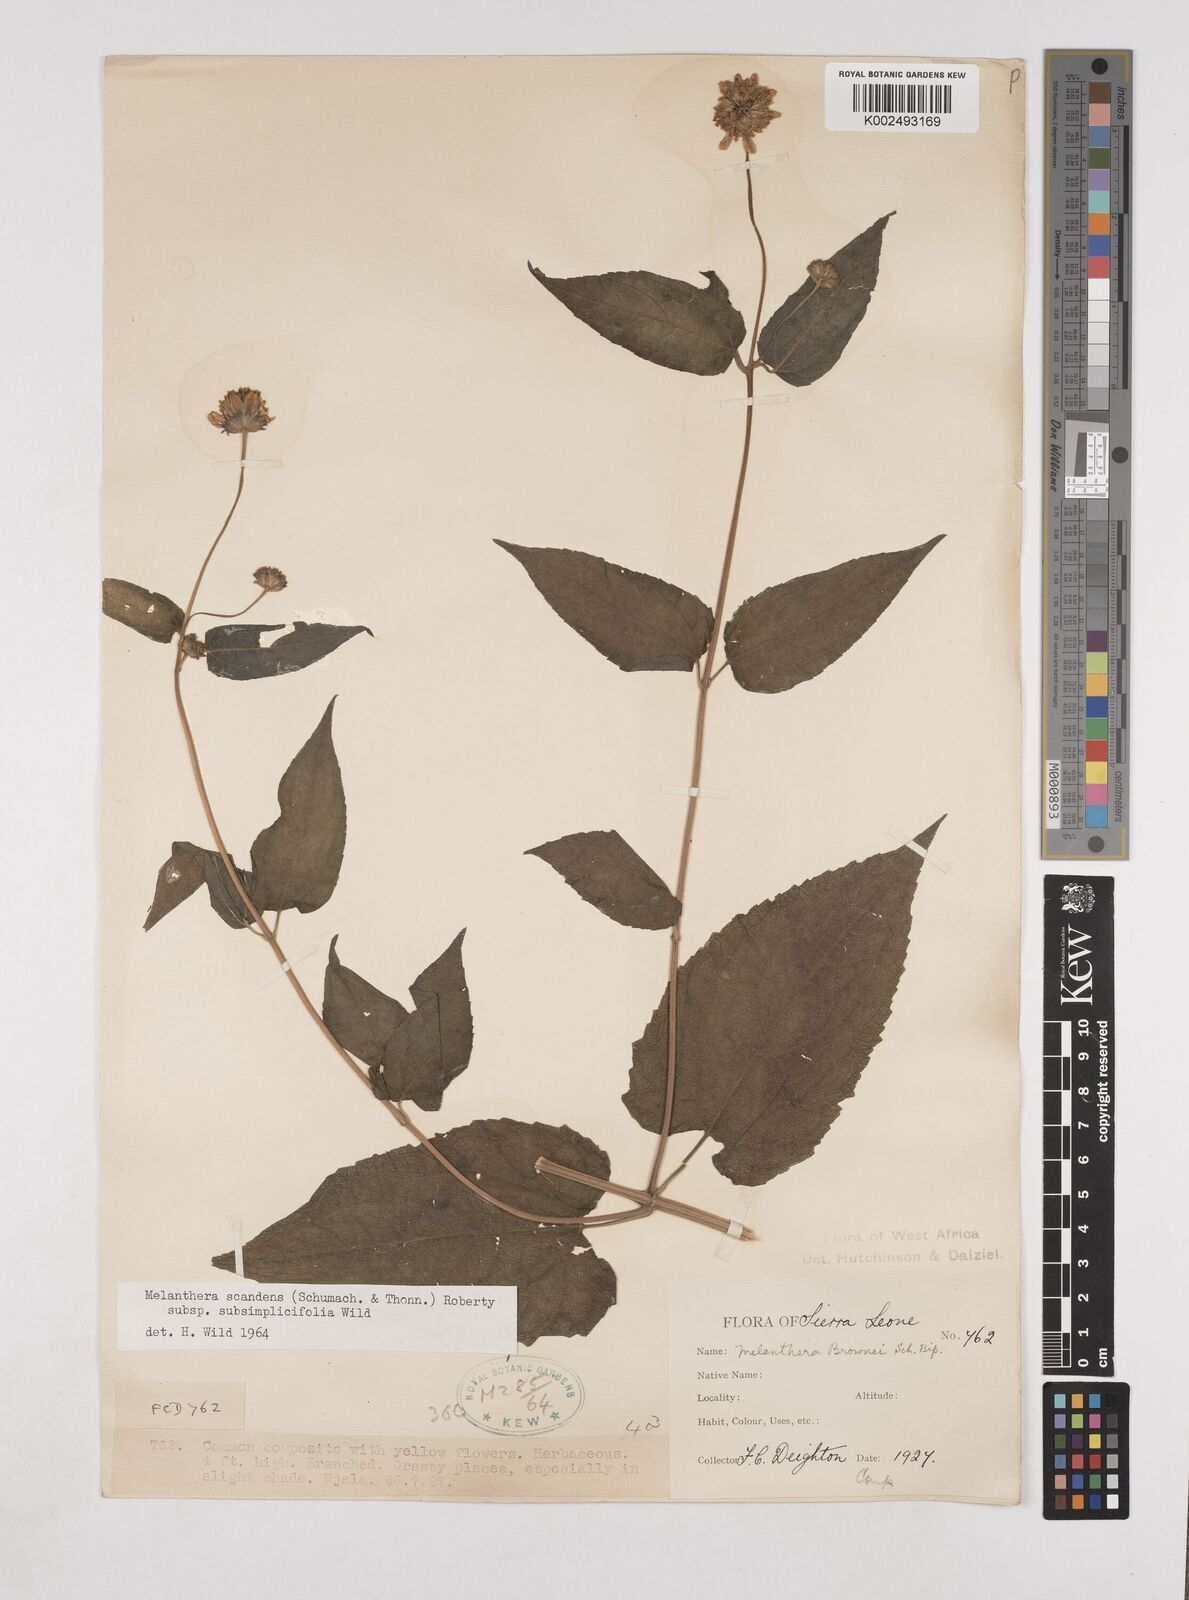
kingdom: Plantae
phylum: Tracheophyta
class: Magnoliopsida
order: Asterales
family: Asteraceae
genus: Lipotriche
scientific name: Lipotriche scandens
